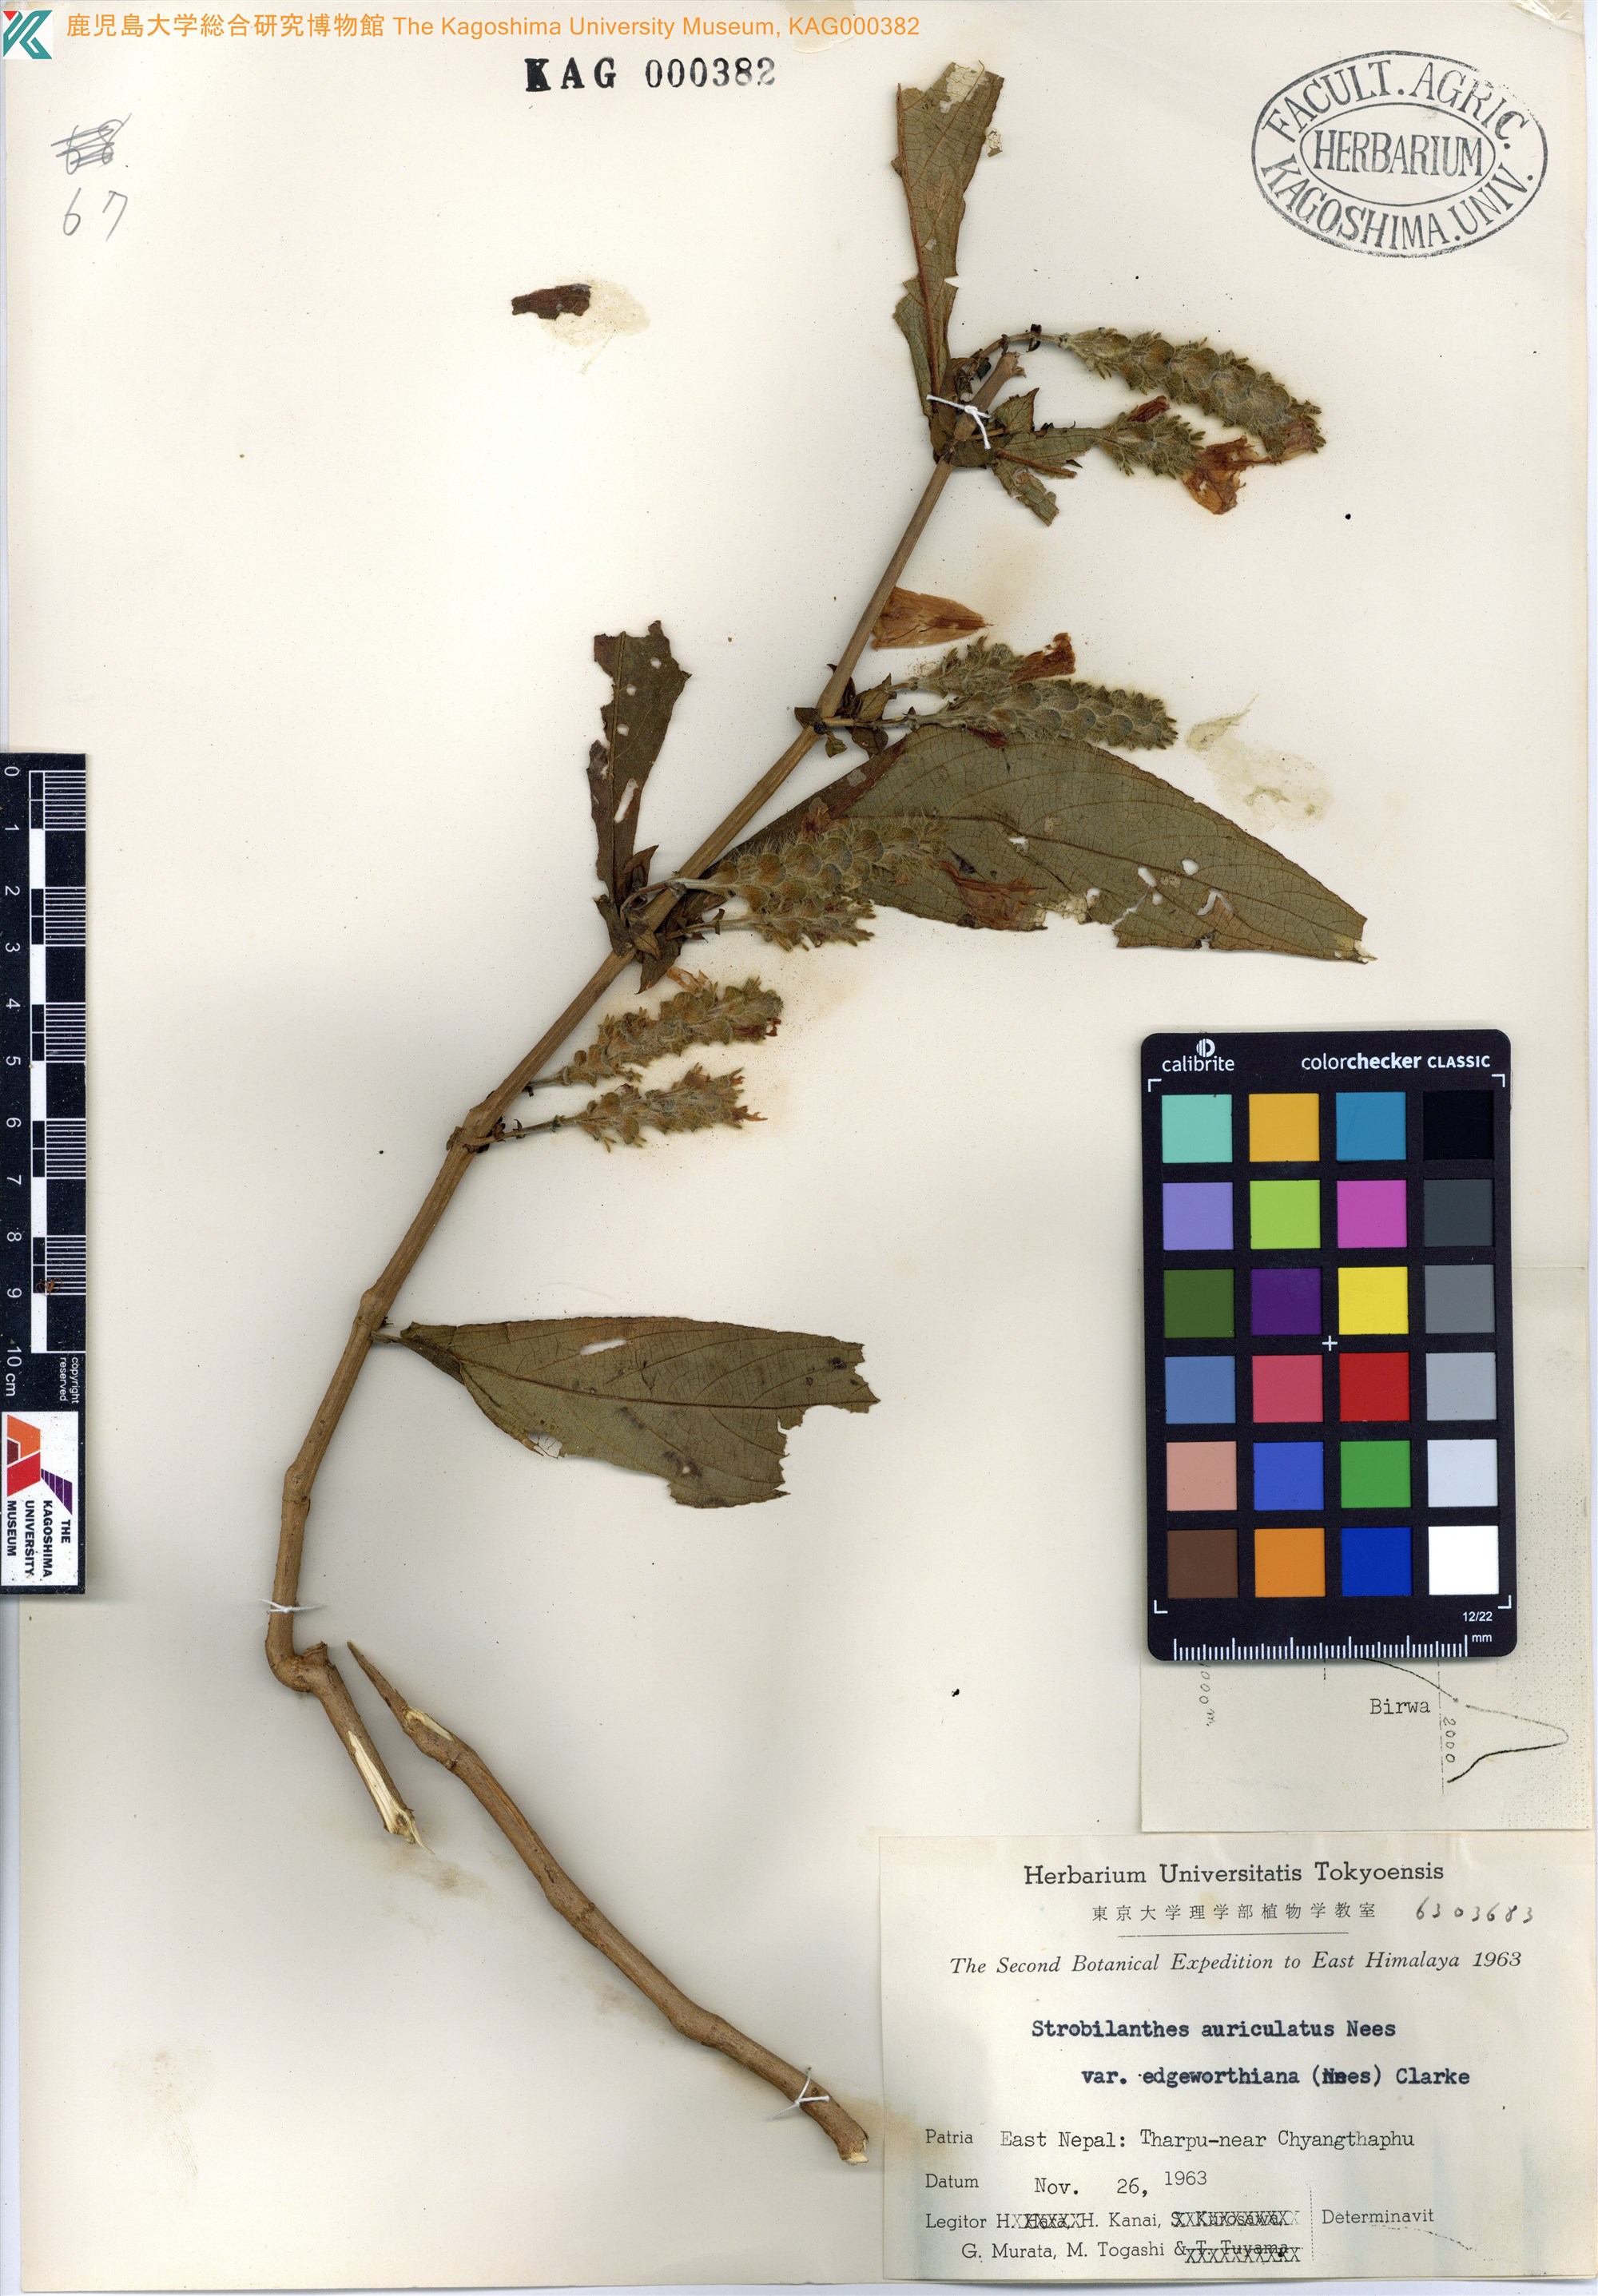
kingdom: Plantae
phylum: Tracheophyta
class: Magnoliopsida
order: Lamiales
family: Acanthaceae
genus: Strobilanthes
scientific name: Strobilanthes auriculata
